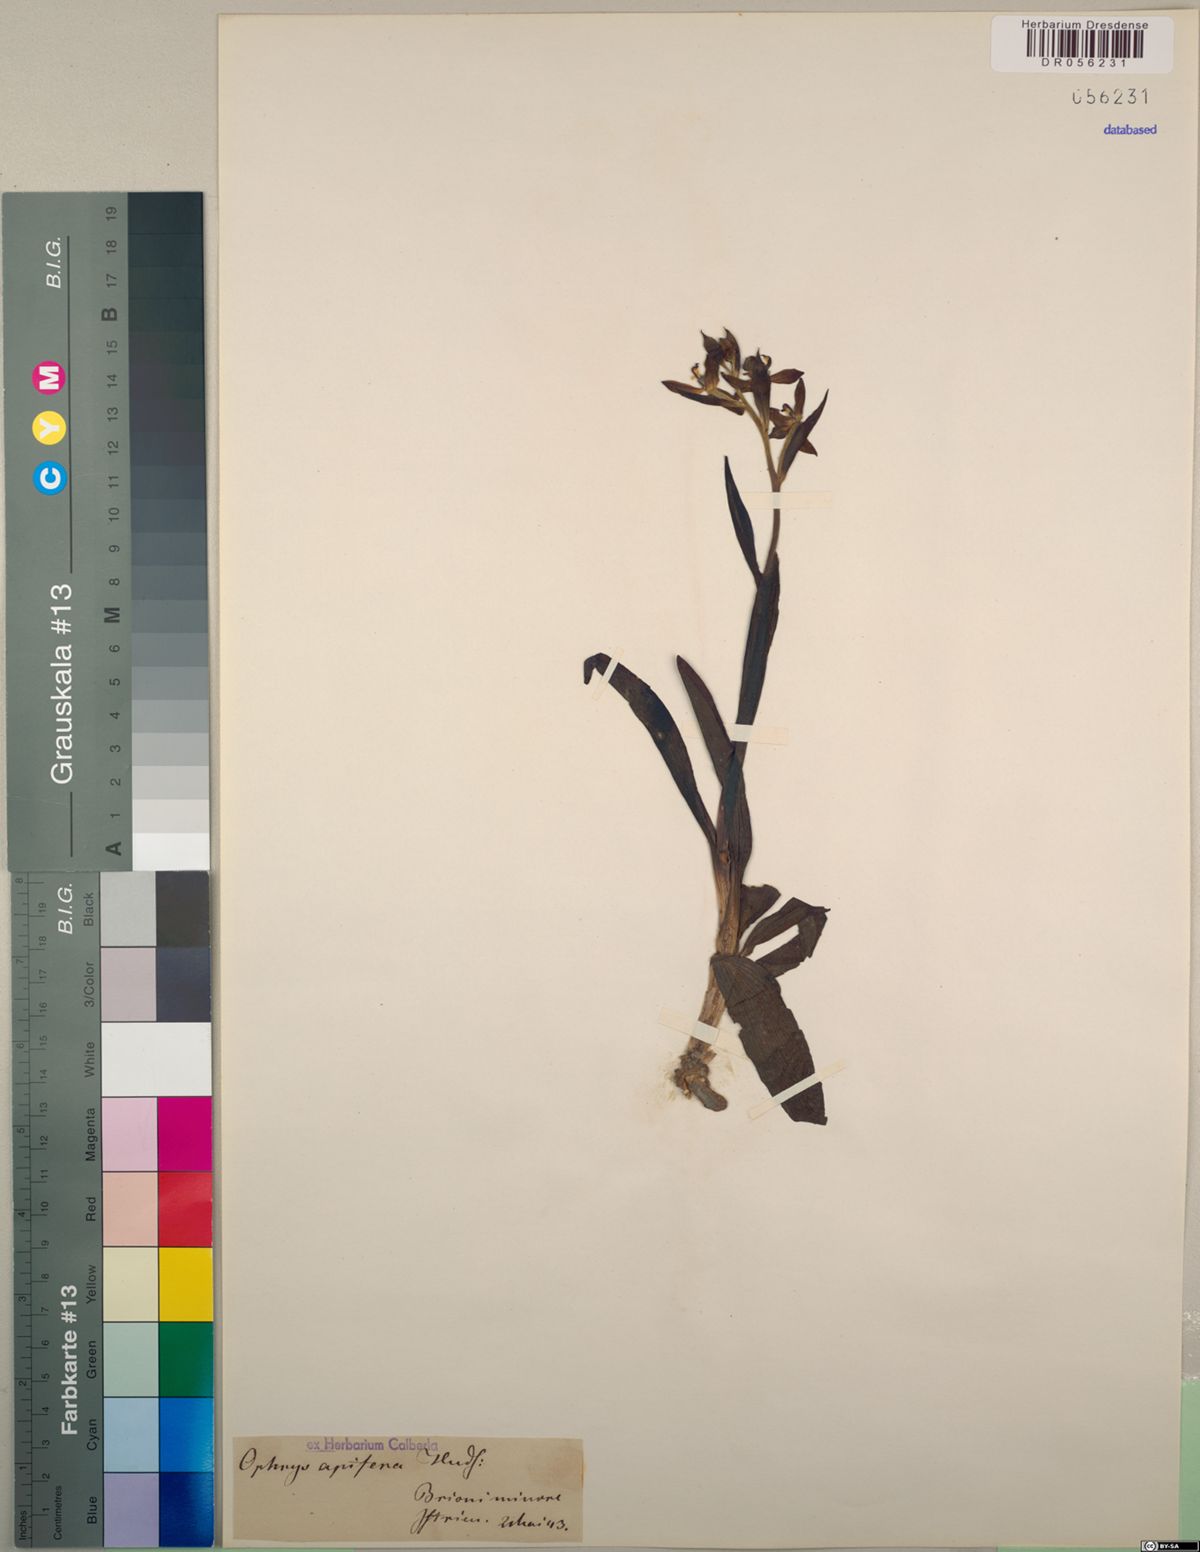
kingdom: Plantae
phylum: Tracheophyta
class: Liliopsida
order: Asparagales
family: Orchidaceae
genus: Ophrys
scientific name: Ophrys apifera
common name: Bee orchid
